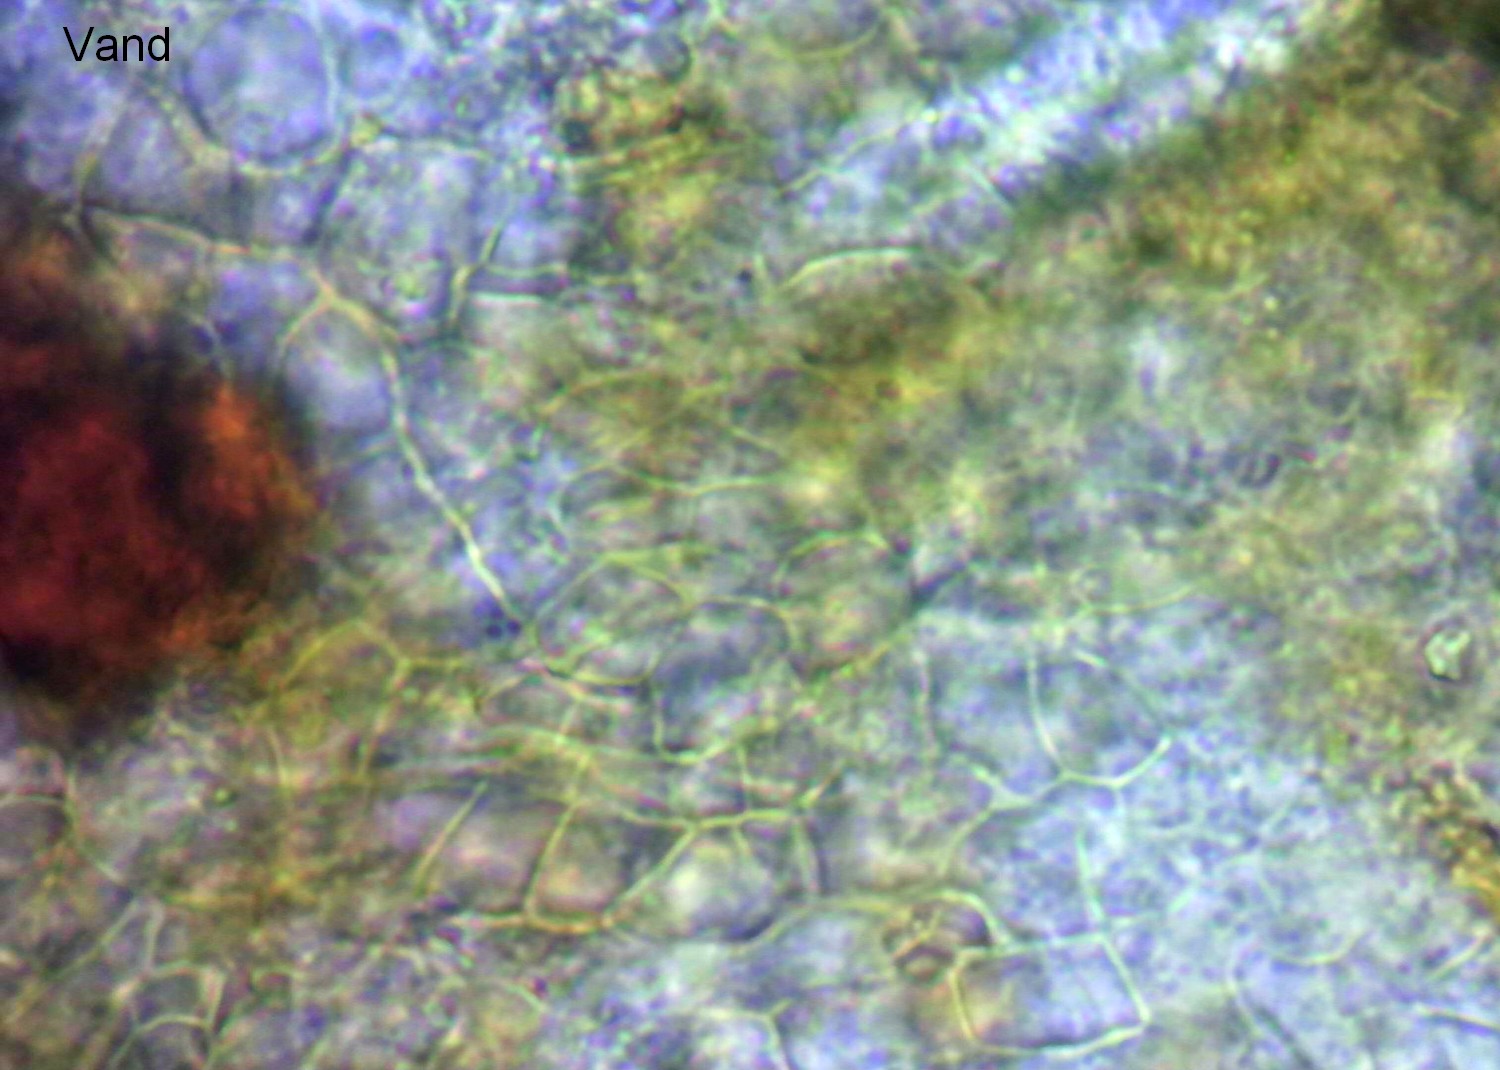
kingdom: Fungi
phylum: Ascomycota
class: Leotiomycetes
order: Thelebolales
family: Thelebolaceae
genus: Thelebolus
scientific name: Thelebolus stercoreus
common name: mangesporet småbæger
